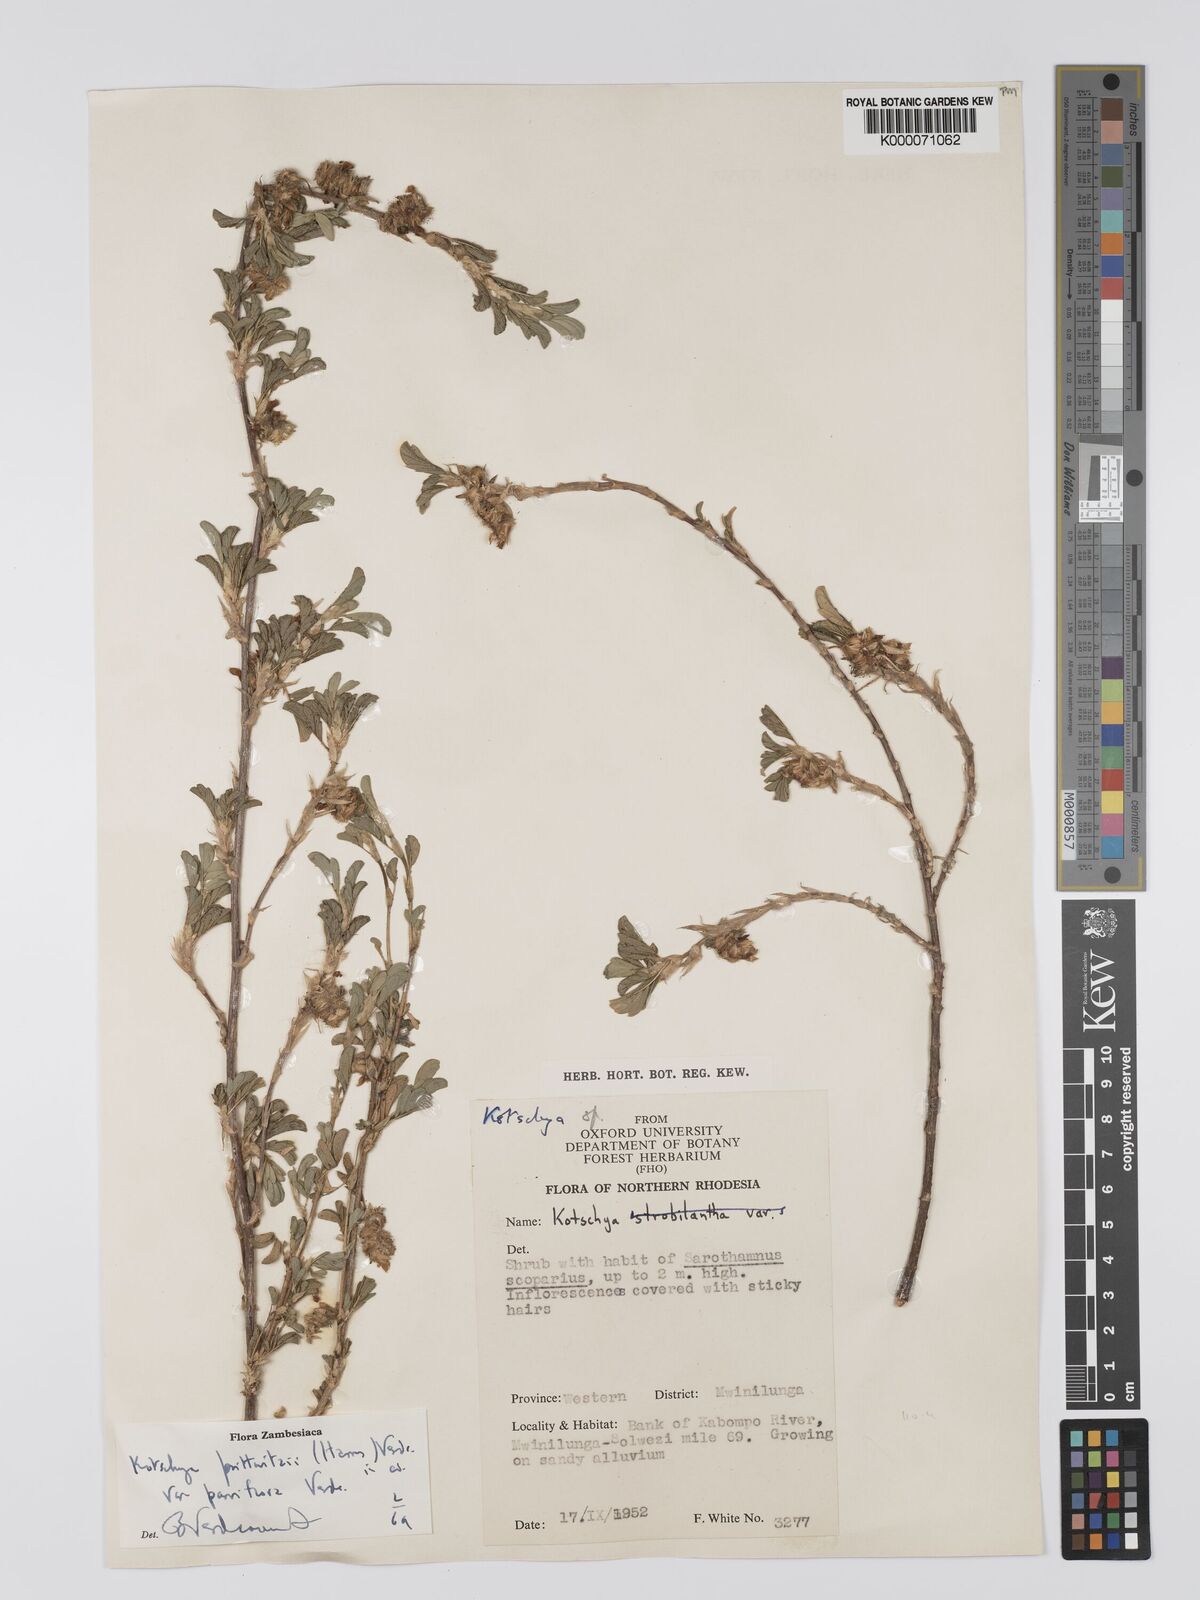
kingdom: Plantae
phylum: Tracheophyta
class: Magnoliopsida
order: Fabales
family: Fabaceae
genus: Kotschya
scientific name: Kotschya prittwitzii
